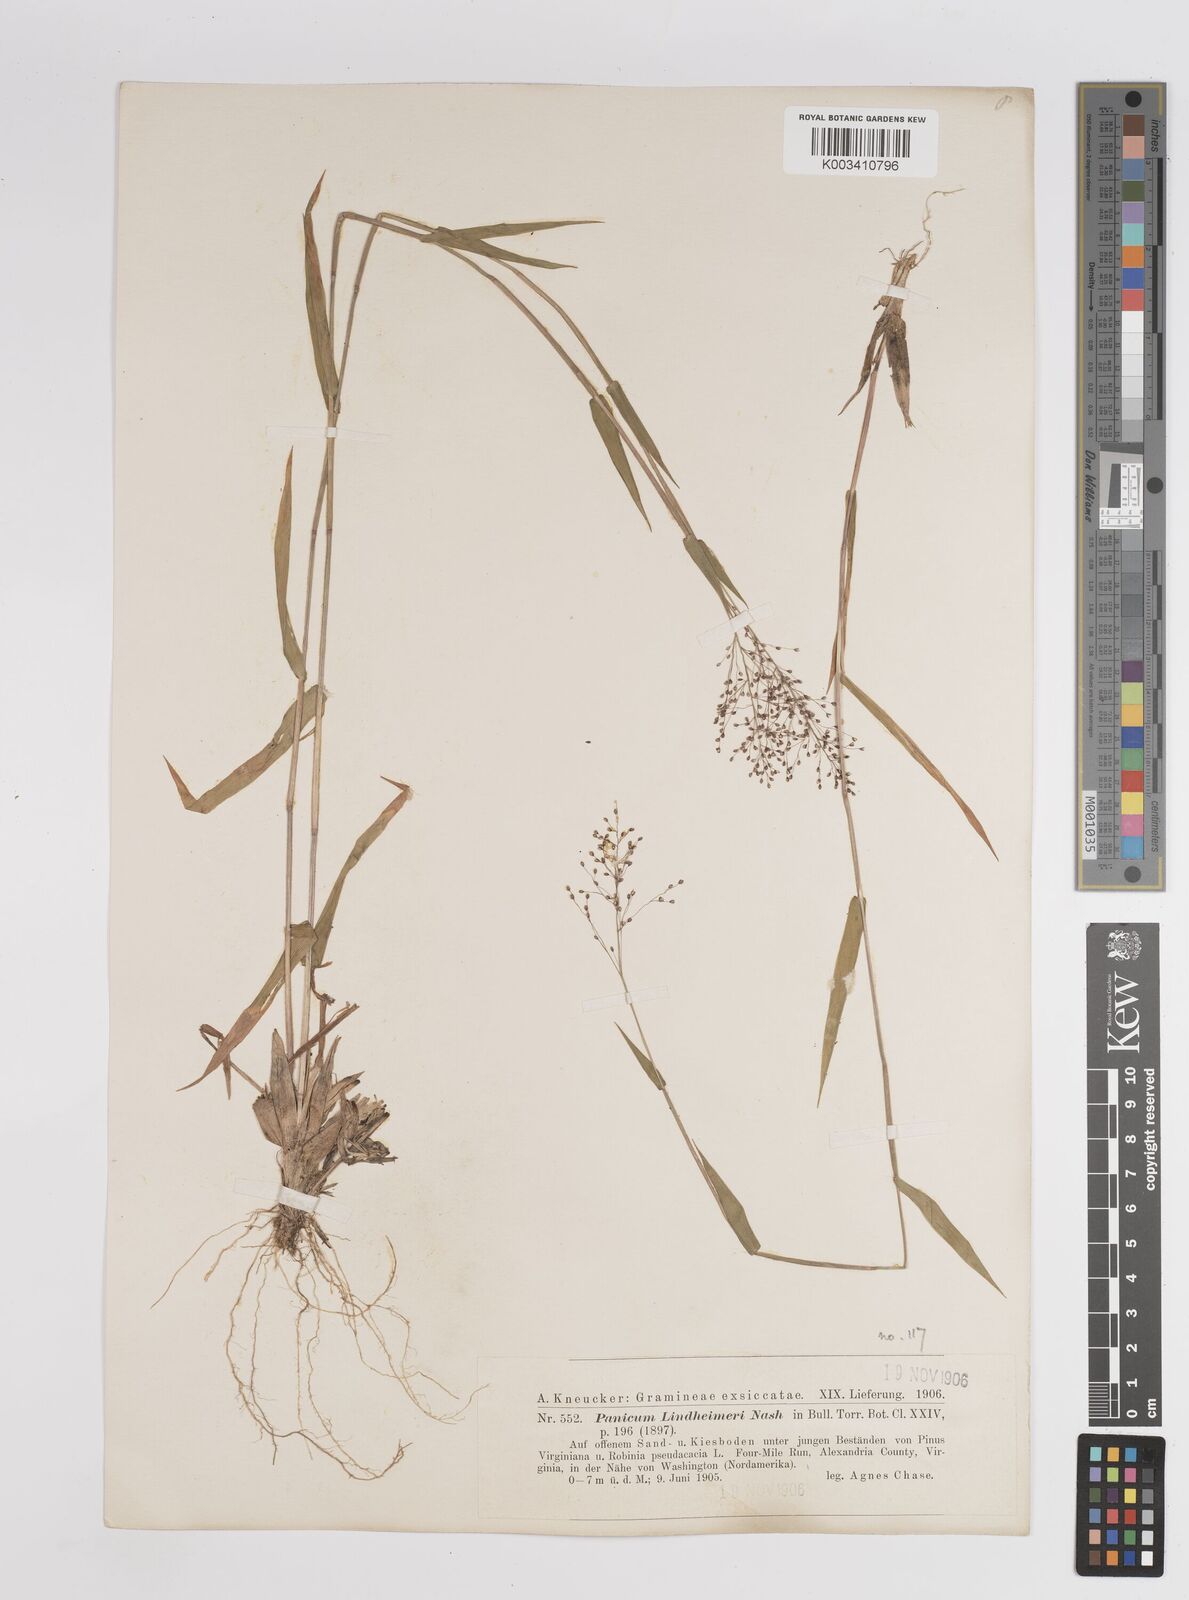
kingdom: Plantae
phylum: Tracheophyta
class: Liliopsida
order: Poales
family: Poaceae
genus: Dichanthelium
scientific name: Dichanthelium acuminatum
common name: Hairy panic grass
